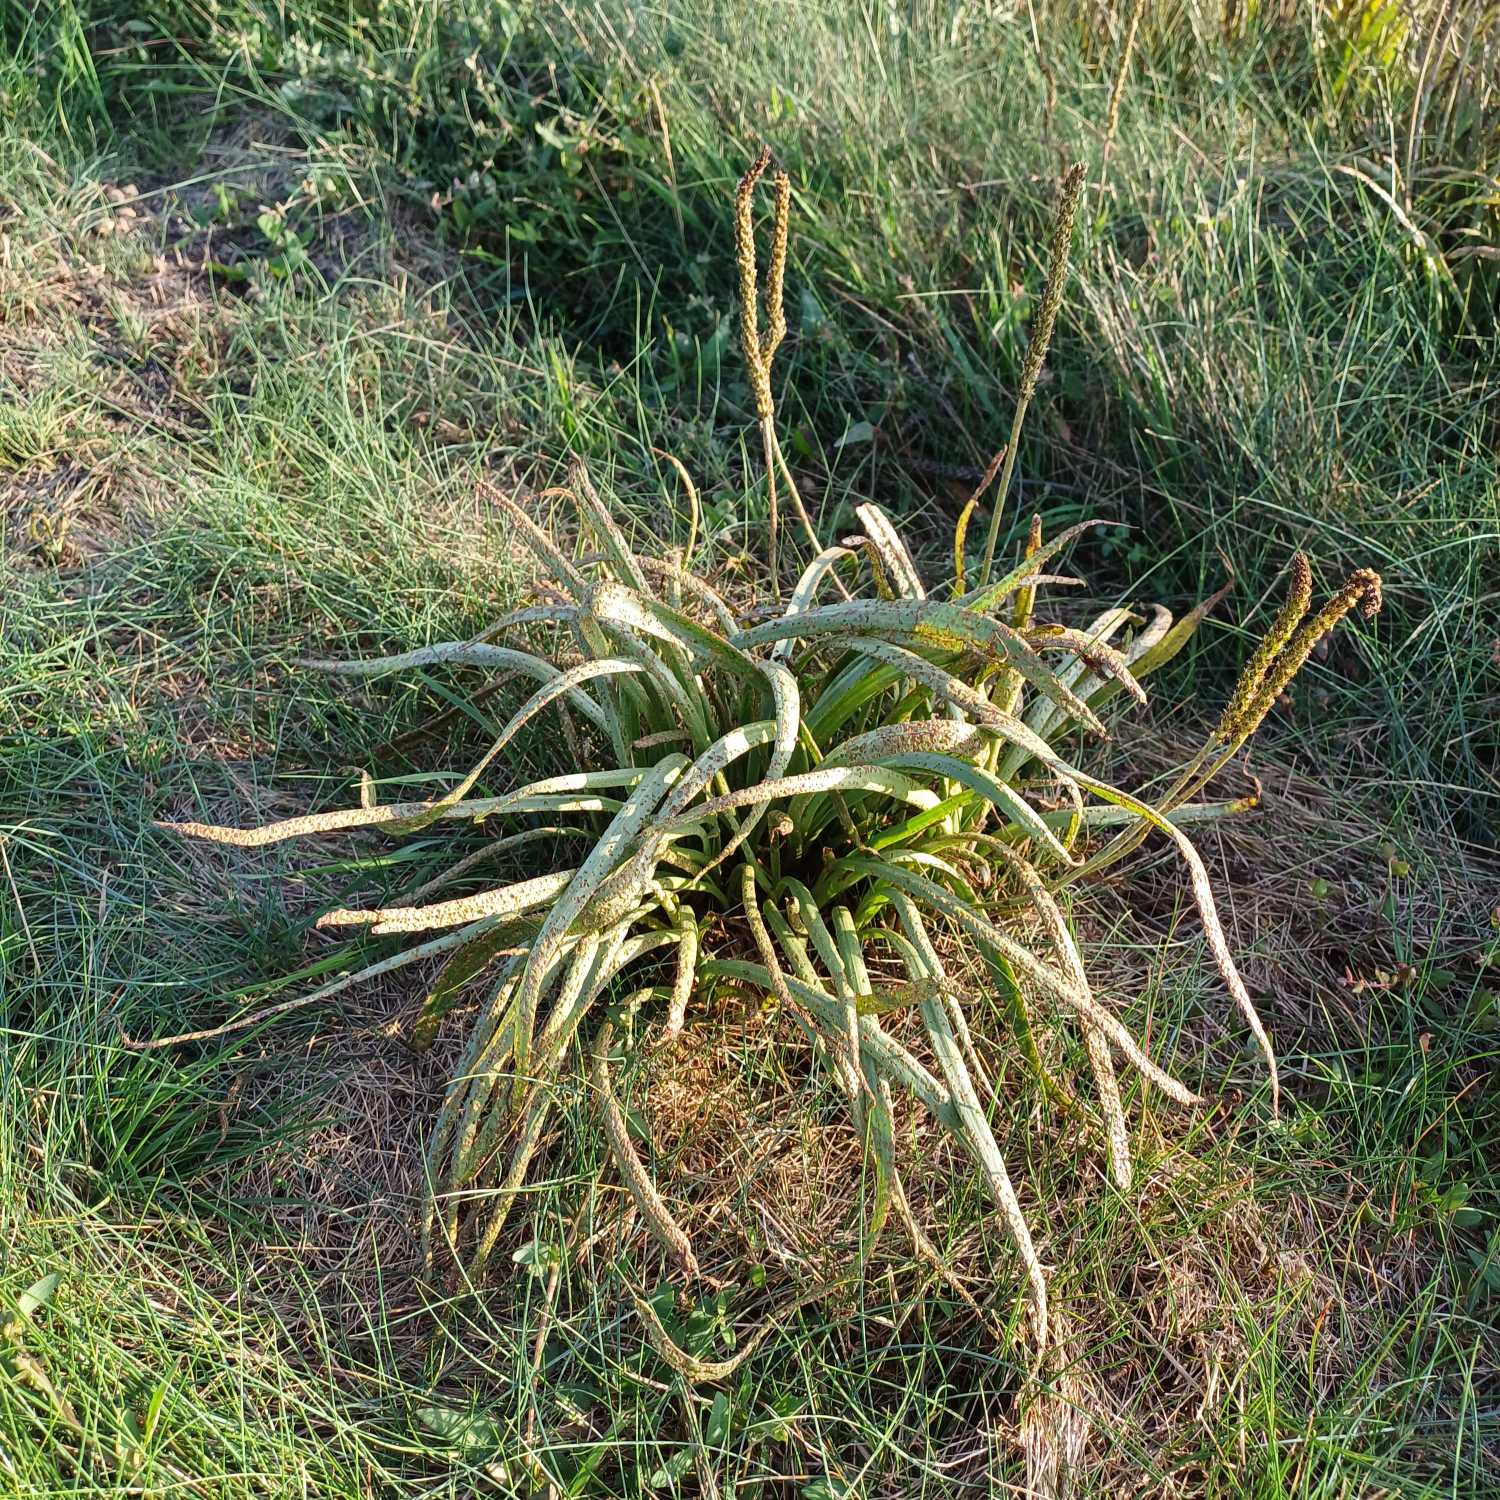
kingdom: Plantae
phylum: Tracheophyta
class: Magnoliopsida
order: Lamiales
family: Plantaginaceae
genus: Plantago
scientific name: Plantago maritima
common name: Strand-vejbred
